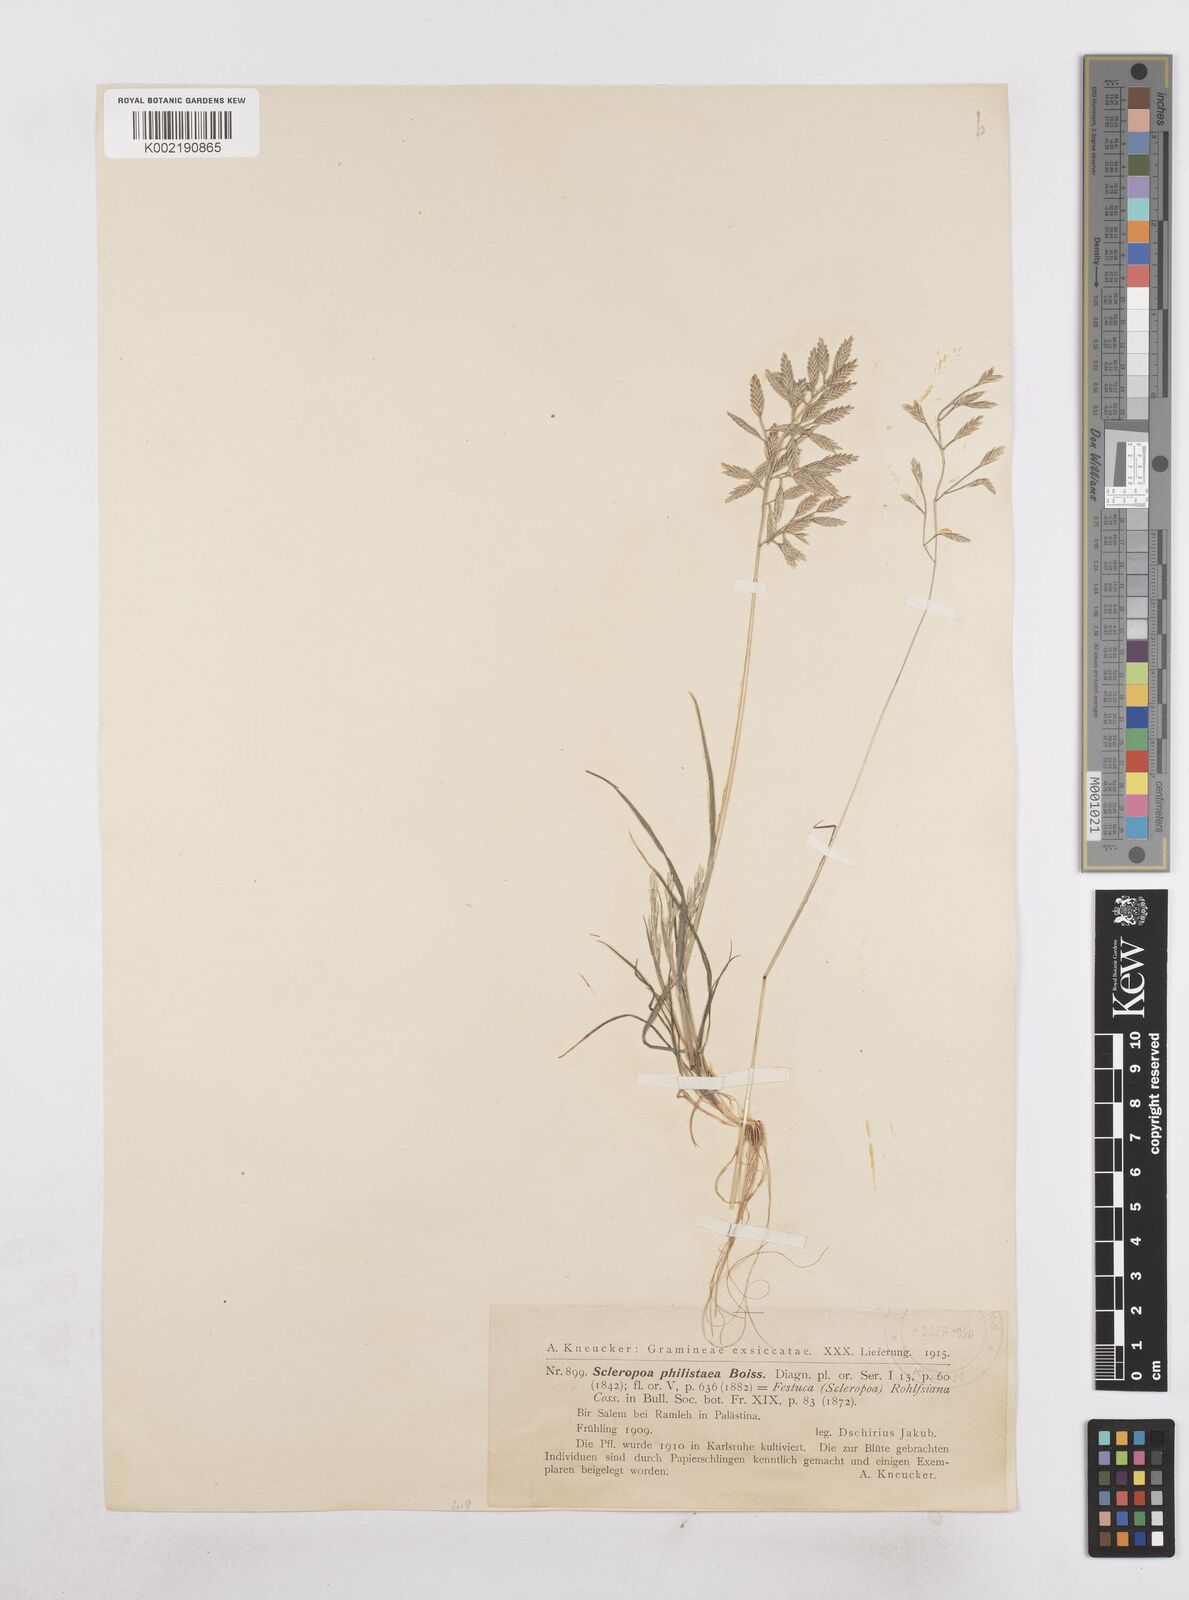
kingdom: Plantae
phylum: Tracheophyta
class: Liliopsida
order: Poales
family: Poaceae
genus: Desmazeria
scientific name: Desmazeria philistaea
